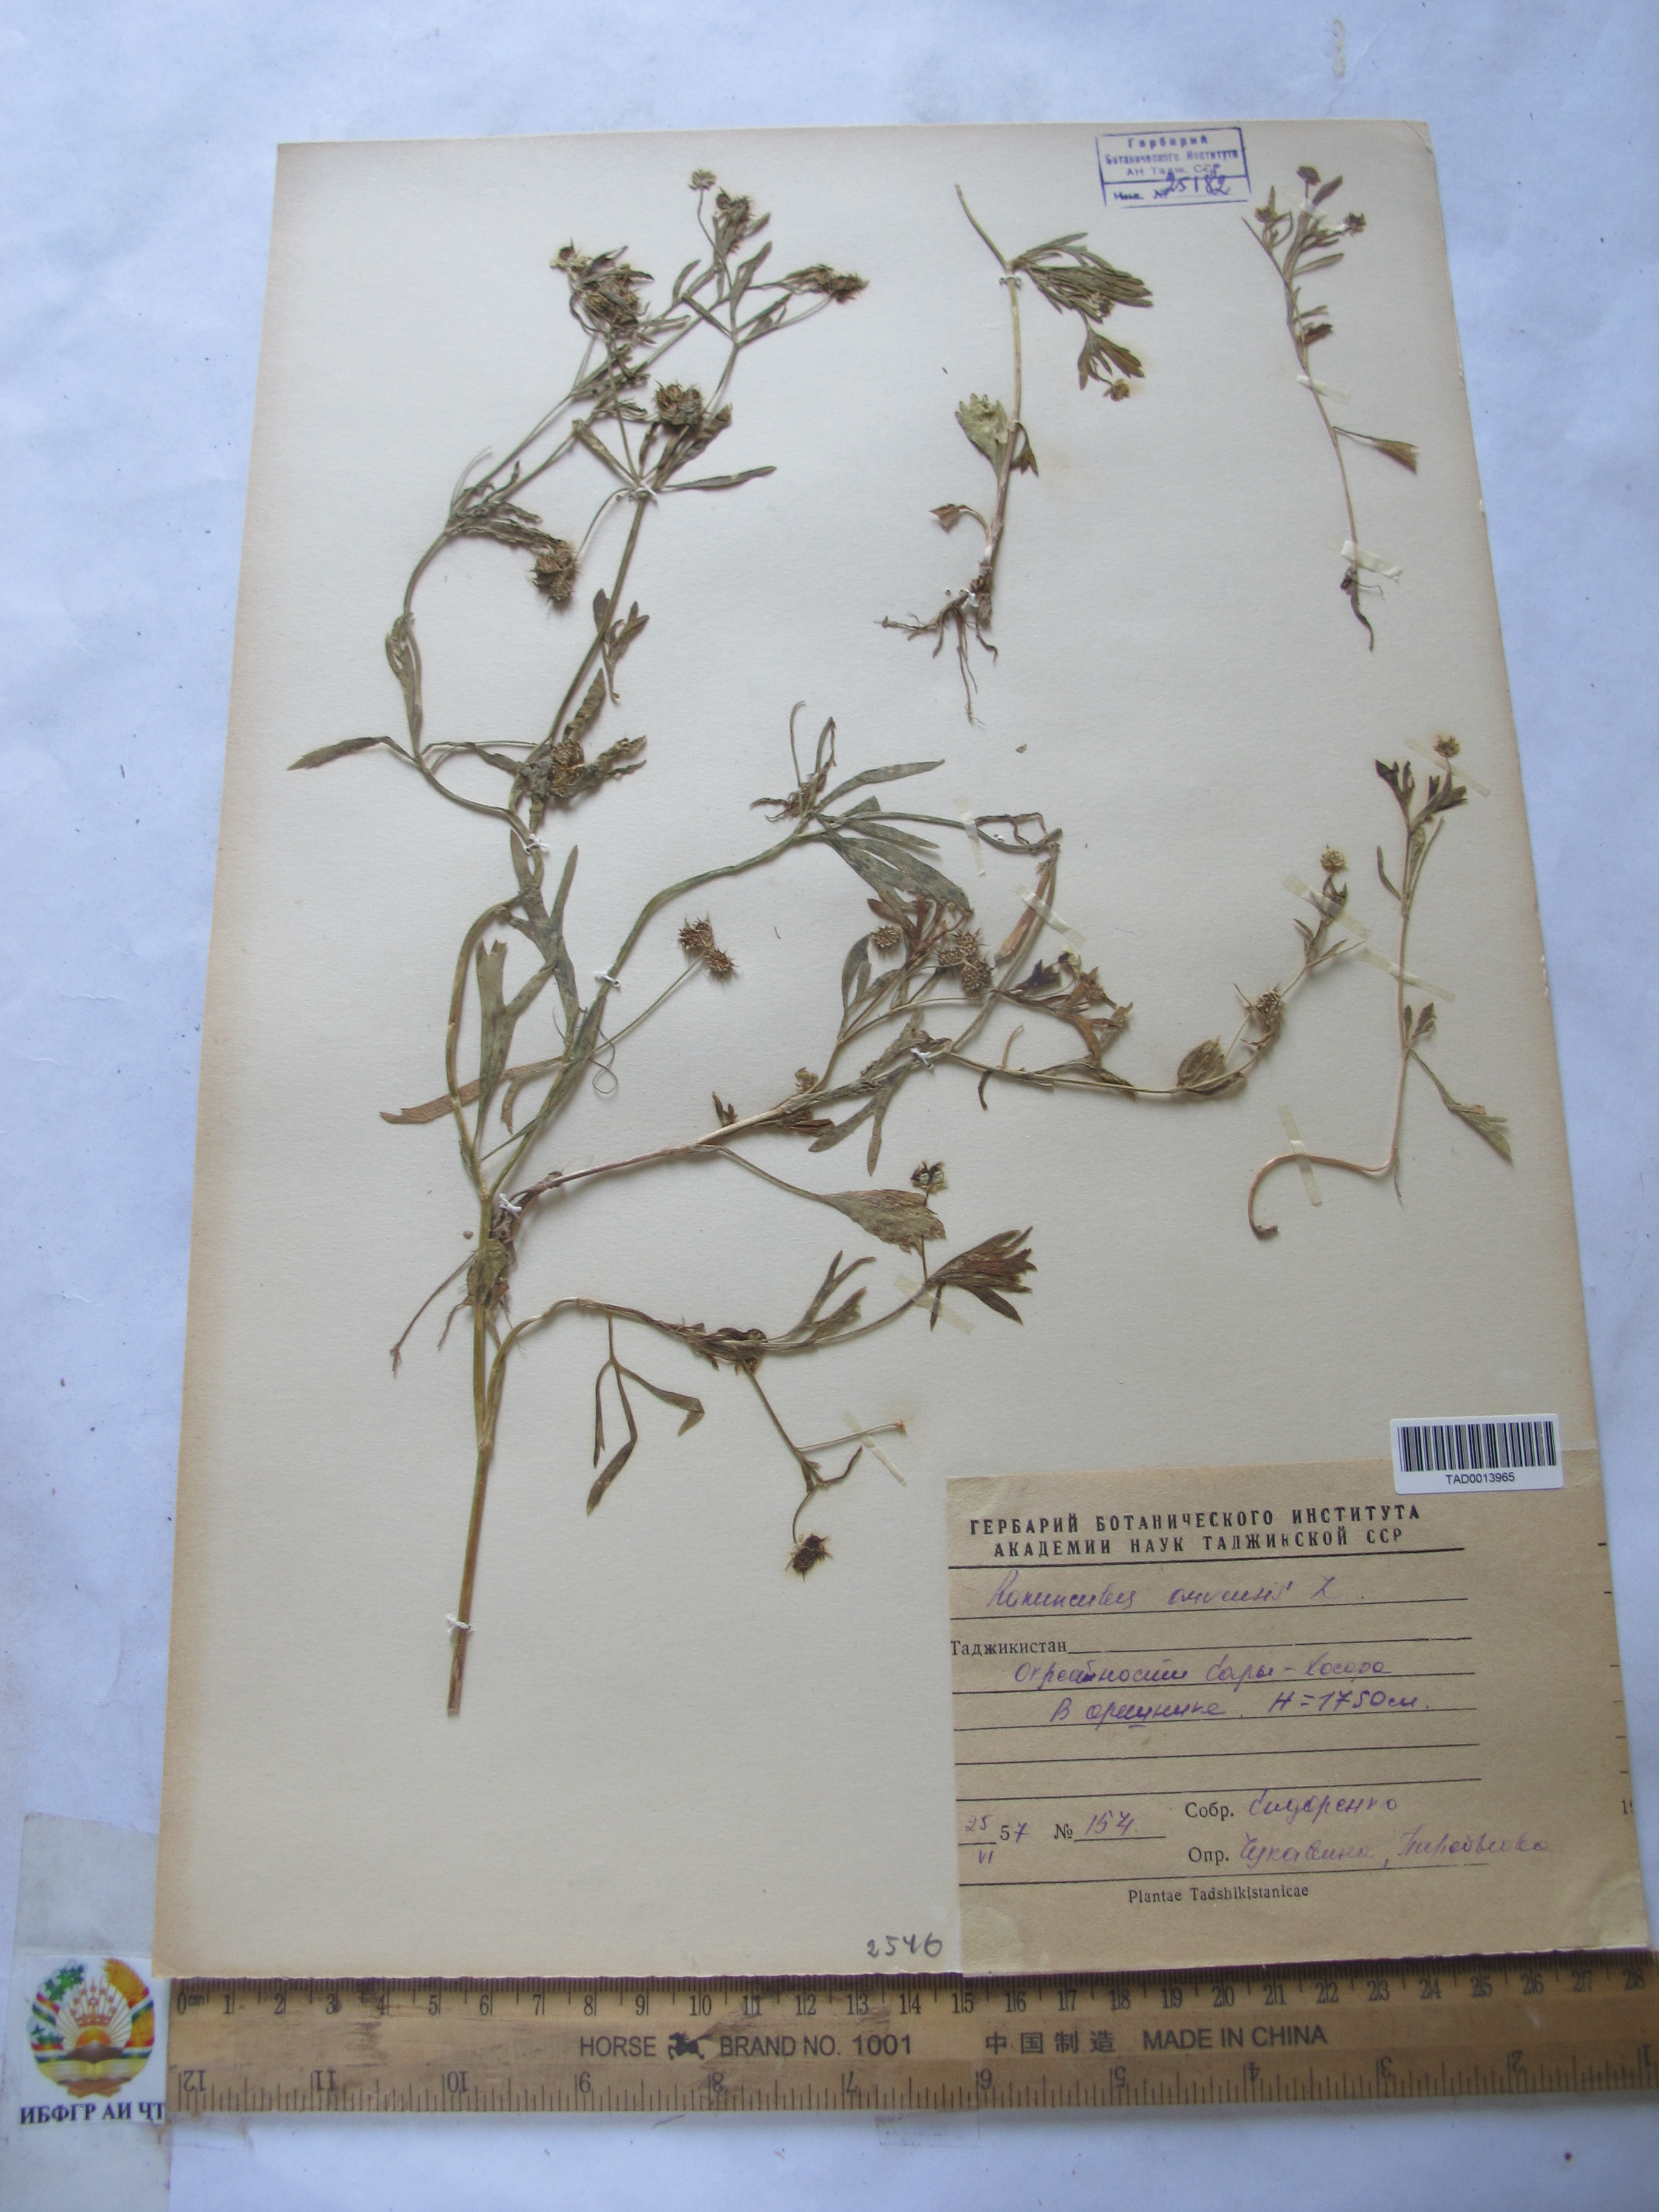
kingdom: Plantae
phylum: Tracheophyta
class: Magnoliopsida
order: Ranunculales
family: Ranunculaceae
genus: Ranunculus
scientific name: Ranunculus arvensis
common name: Corn buttercup
